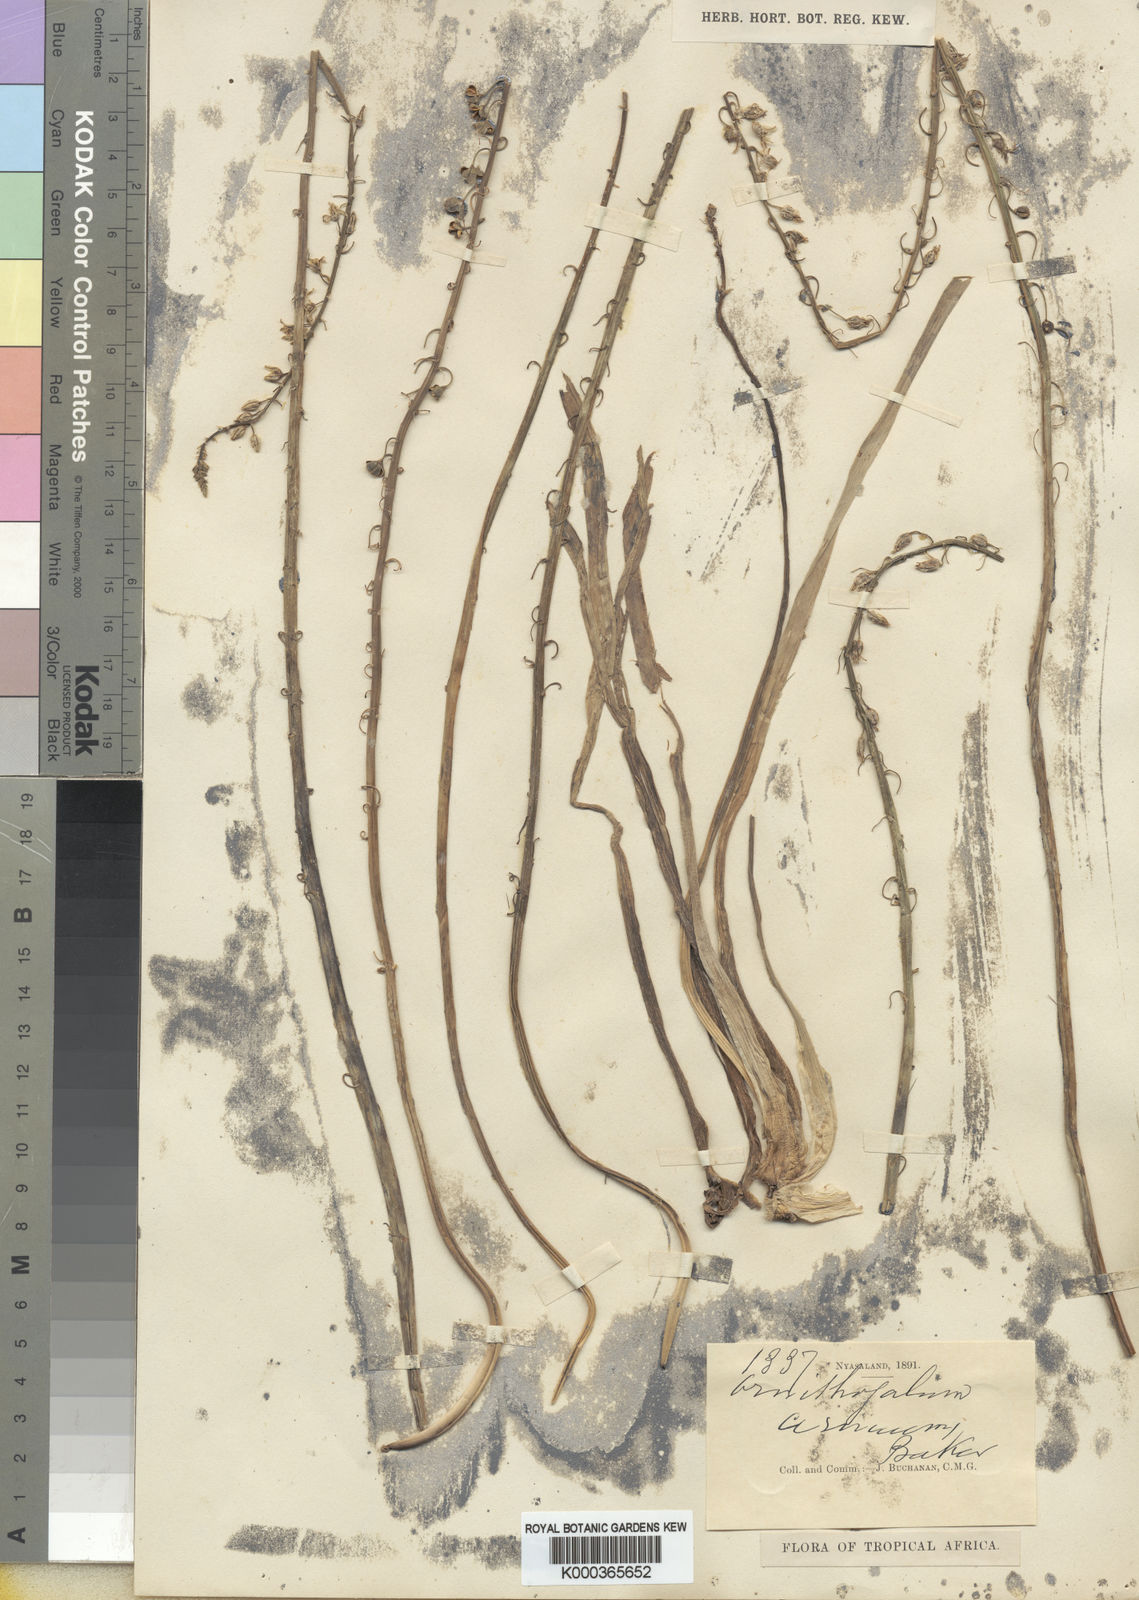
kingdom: Plantae
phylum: Tracheophyta
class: Liliopsida
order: Asparagales
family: Asparagaceae
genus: Ornithogalum
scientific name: Ornithogalum cernuum
